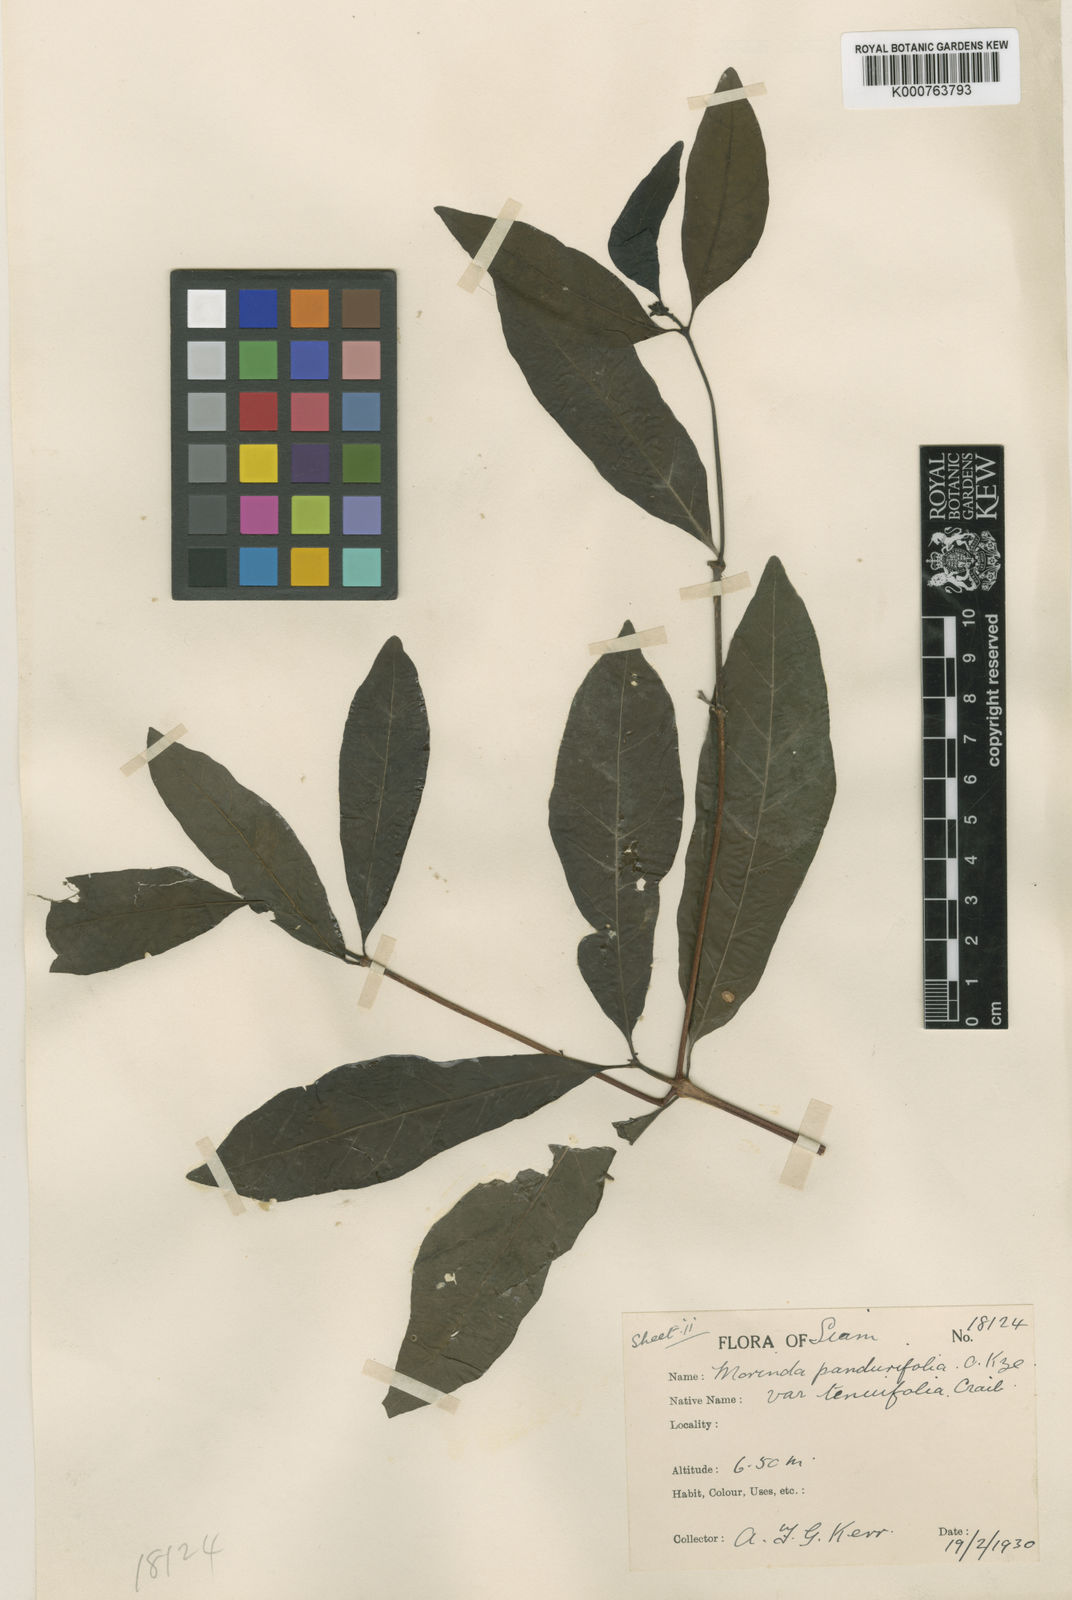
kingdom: Plantae
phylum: Tracheophyta
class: Magnoliopsida
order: Gentianales
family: Rubiaceae
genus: Morinda
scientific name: Morinda persicifolia
